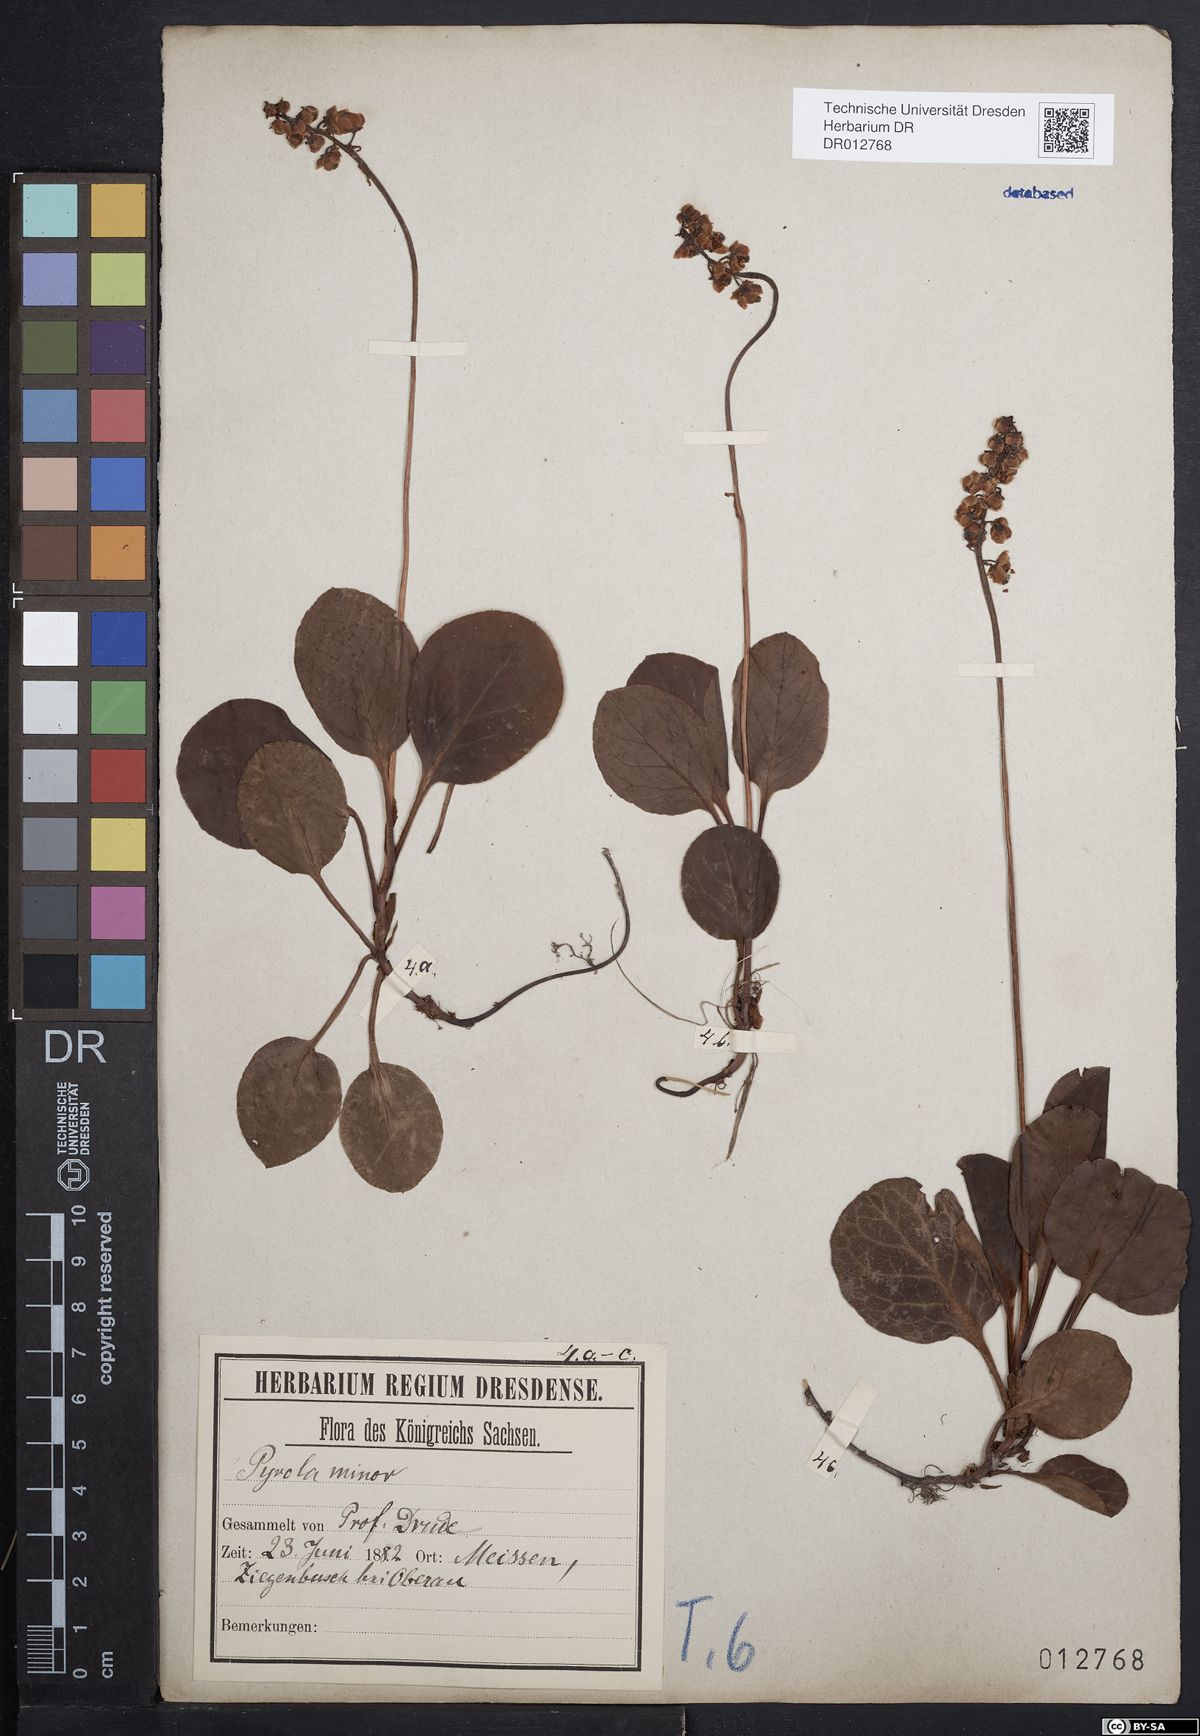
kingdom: Plantae
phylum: Tracheophyta
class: Magnoliopsida
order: Ericales
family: Ericaceae
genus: Pyrola
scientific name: Pyrola minor
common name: Common wintergreen
